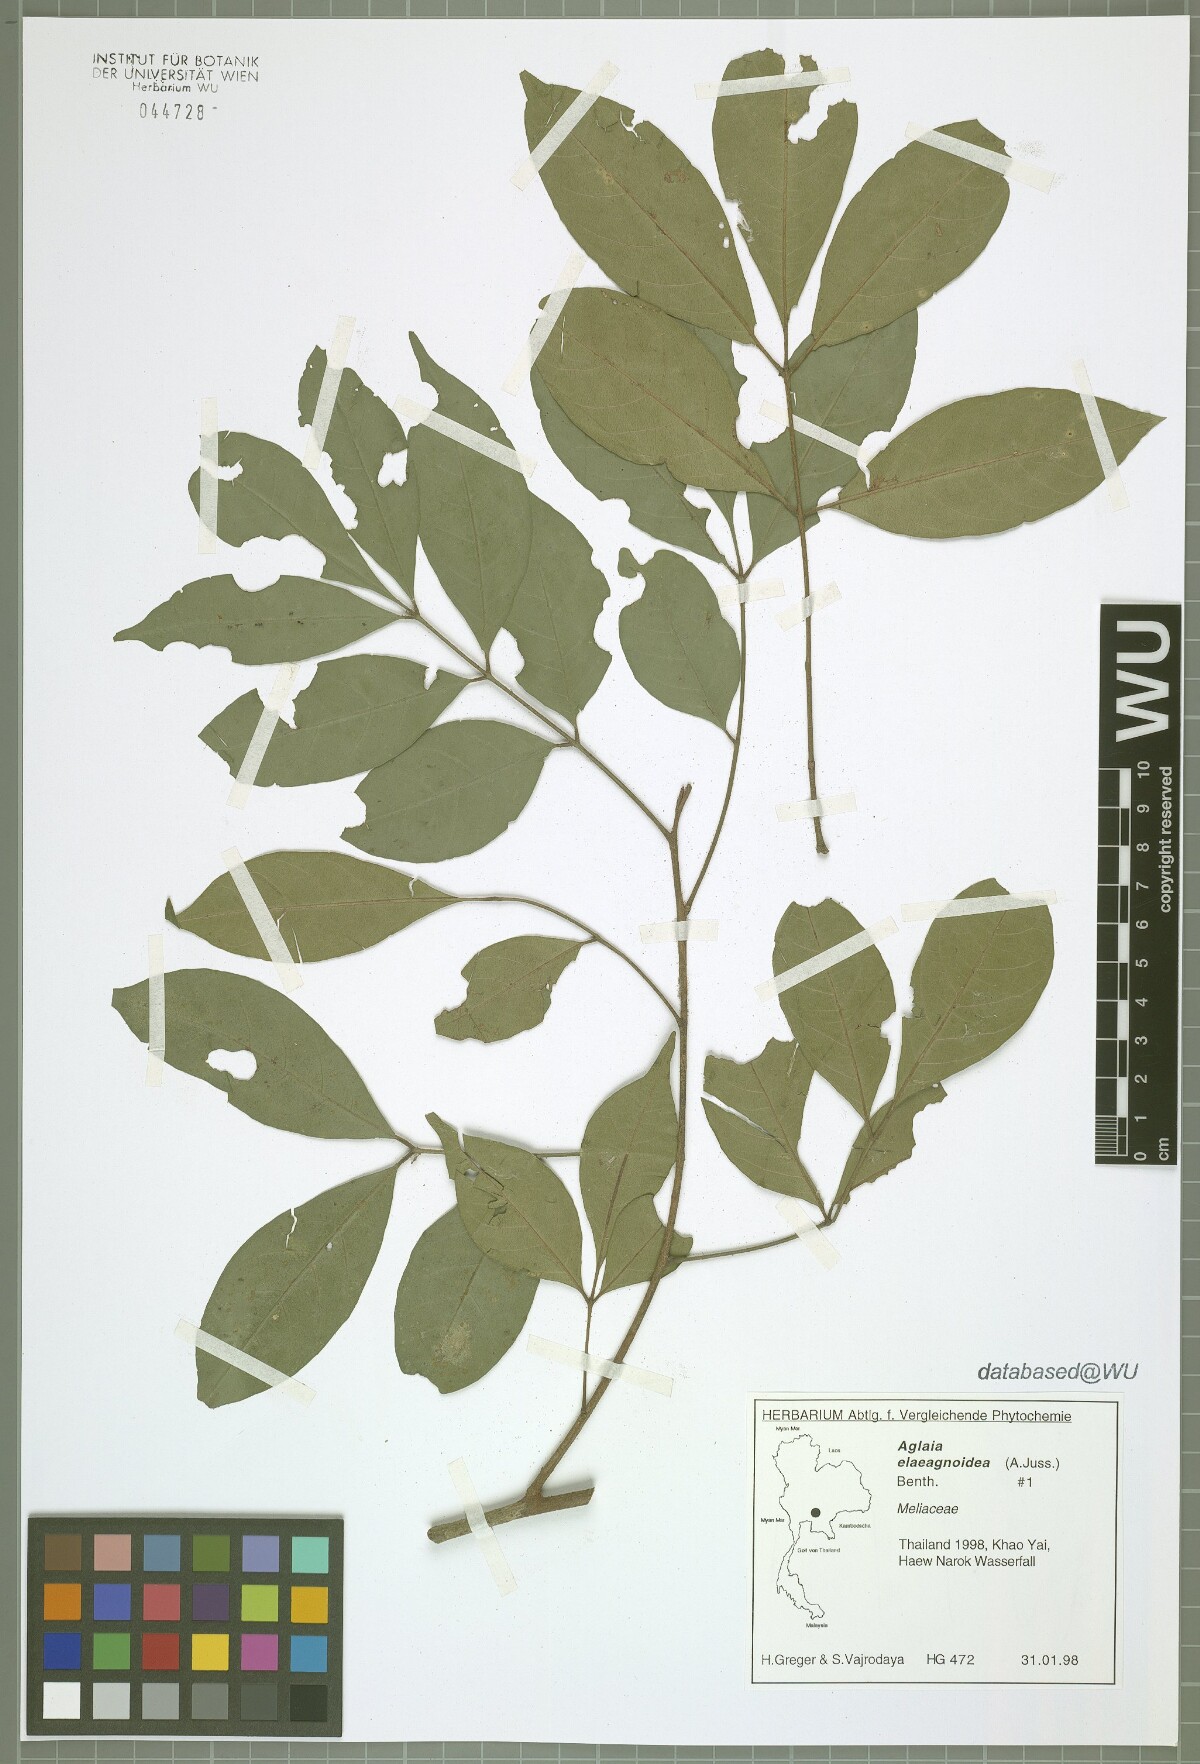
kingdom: Plantae
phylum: Tracheophyta
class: Magnoliopsida
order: Sapindales
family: Meliaceae
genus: Aglaia
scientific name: Aglaia elaeagnoidea
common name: Droopyleaf
